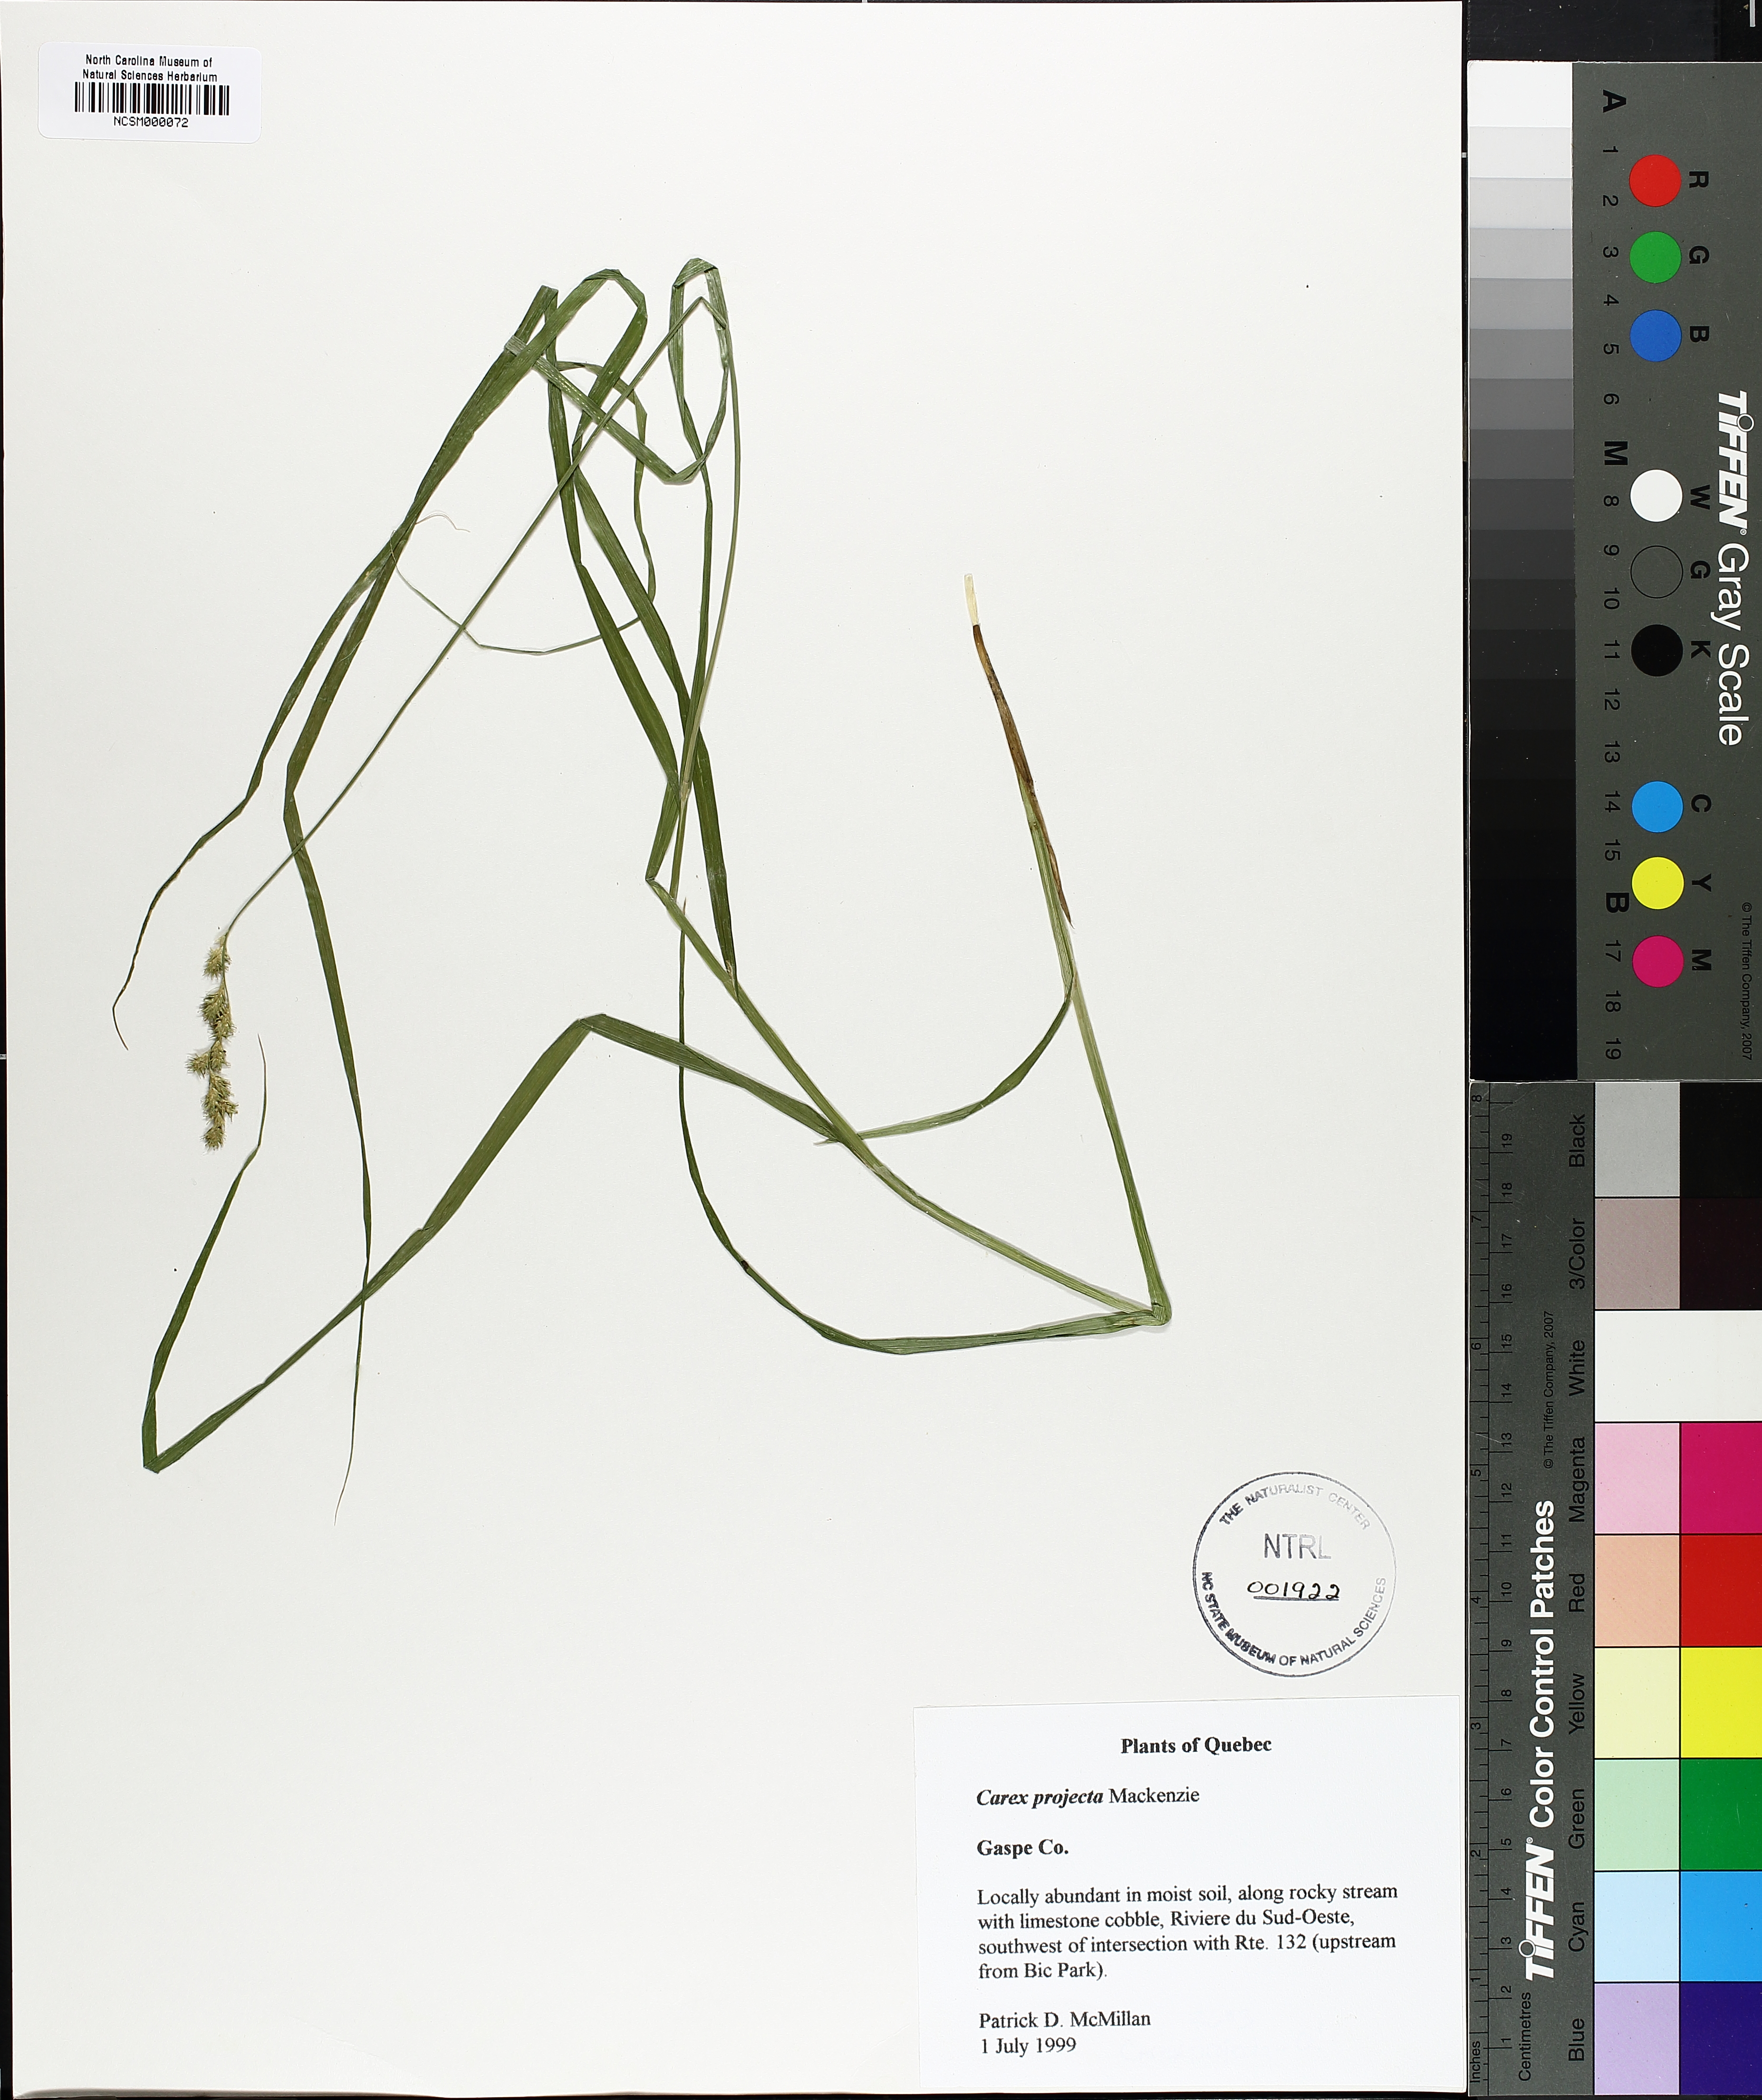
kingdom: Plantae
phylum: Tracheophyta
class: Liliopsida
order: Poales
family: Cyperaceae
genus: Carex
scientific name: Carex projecta
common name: Loose-headed oval sedge
